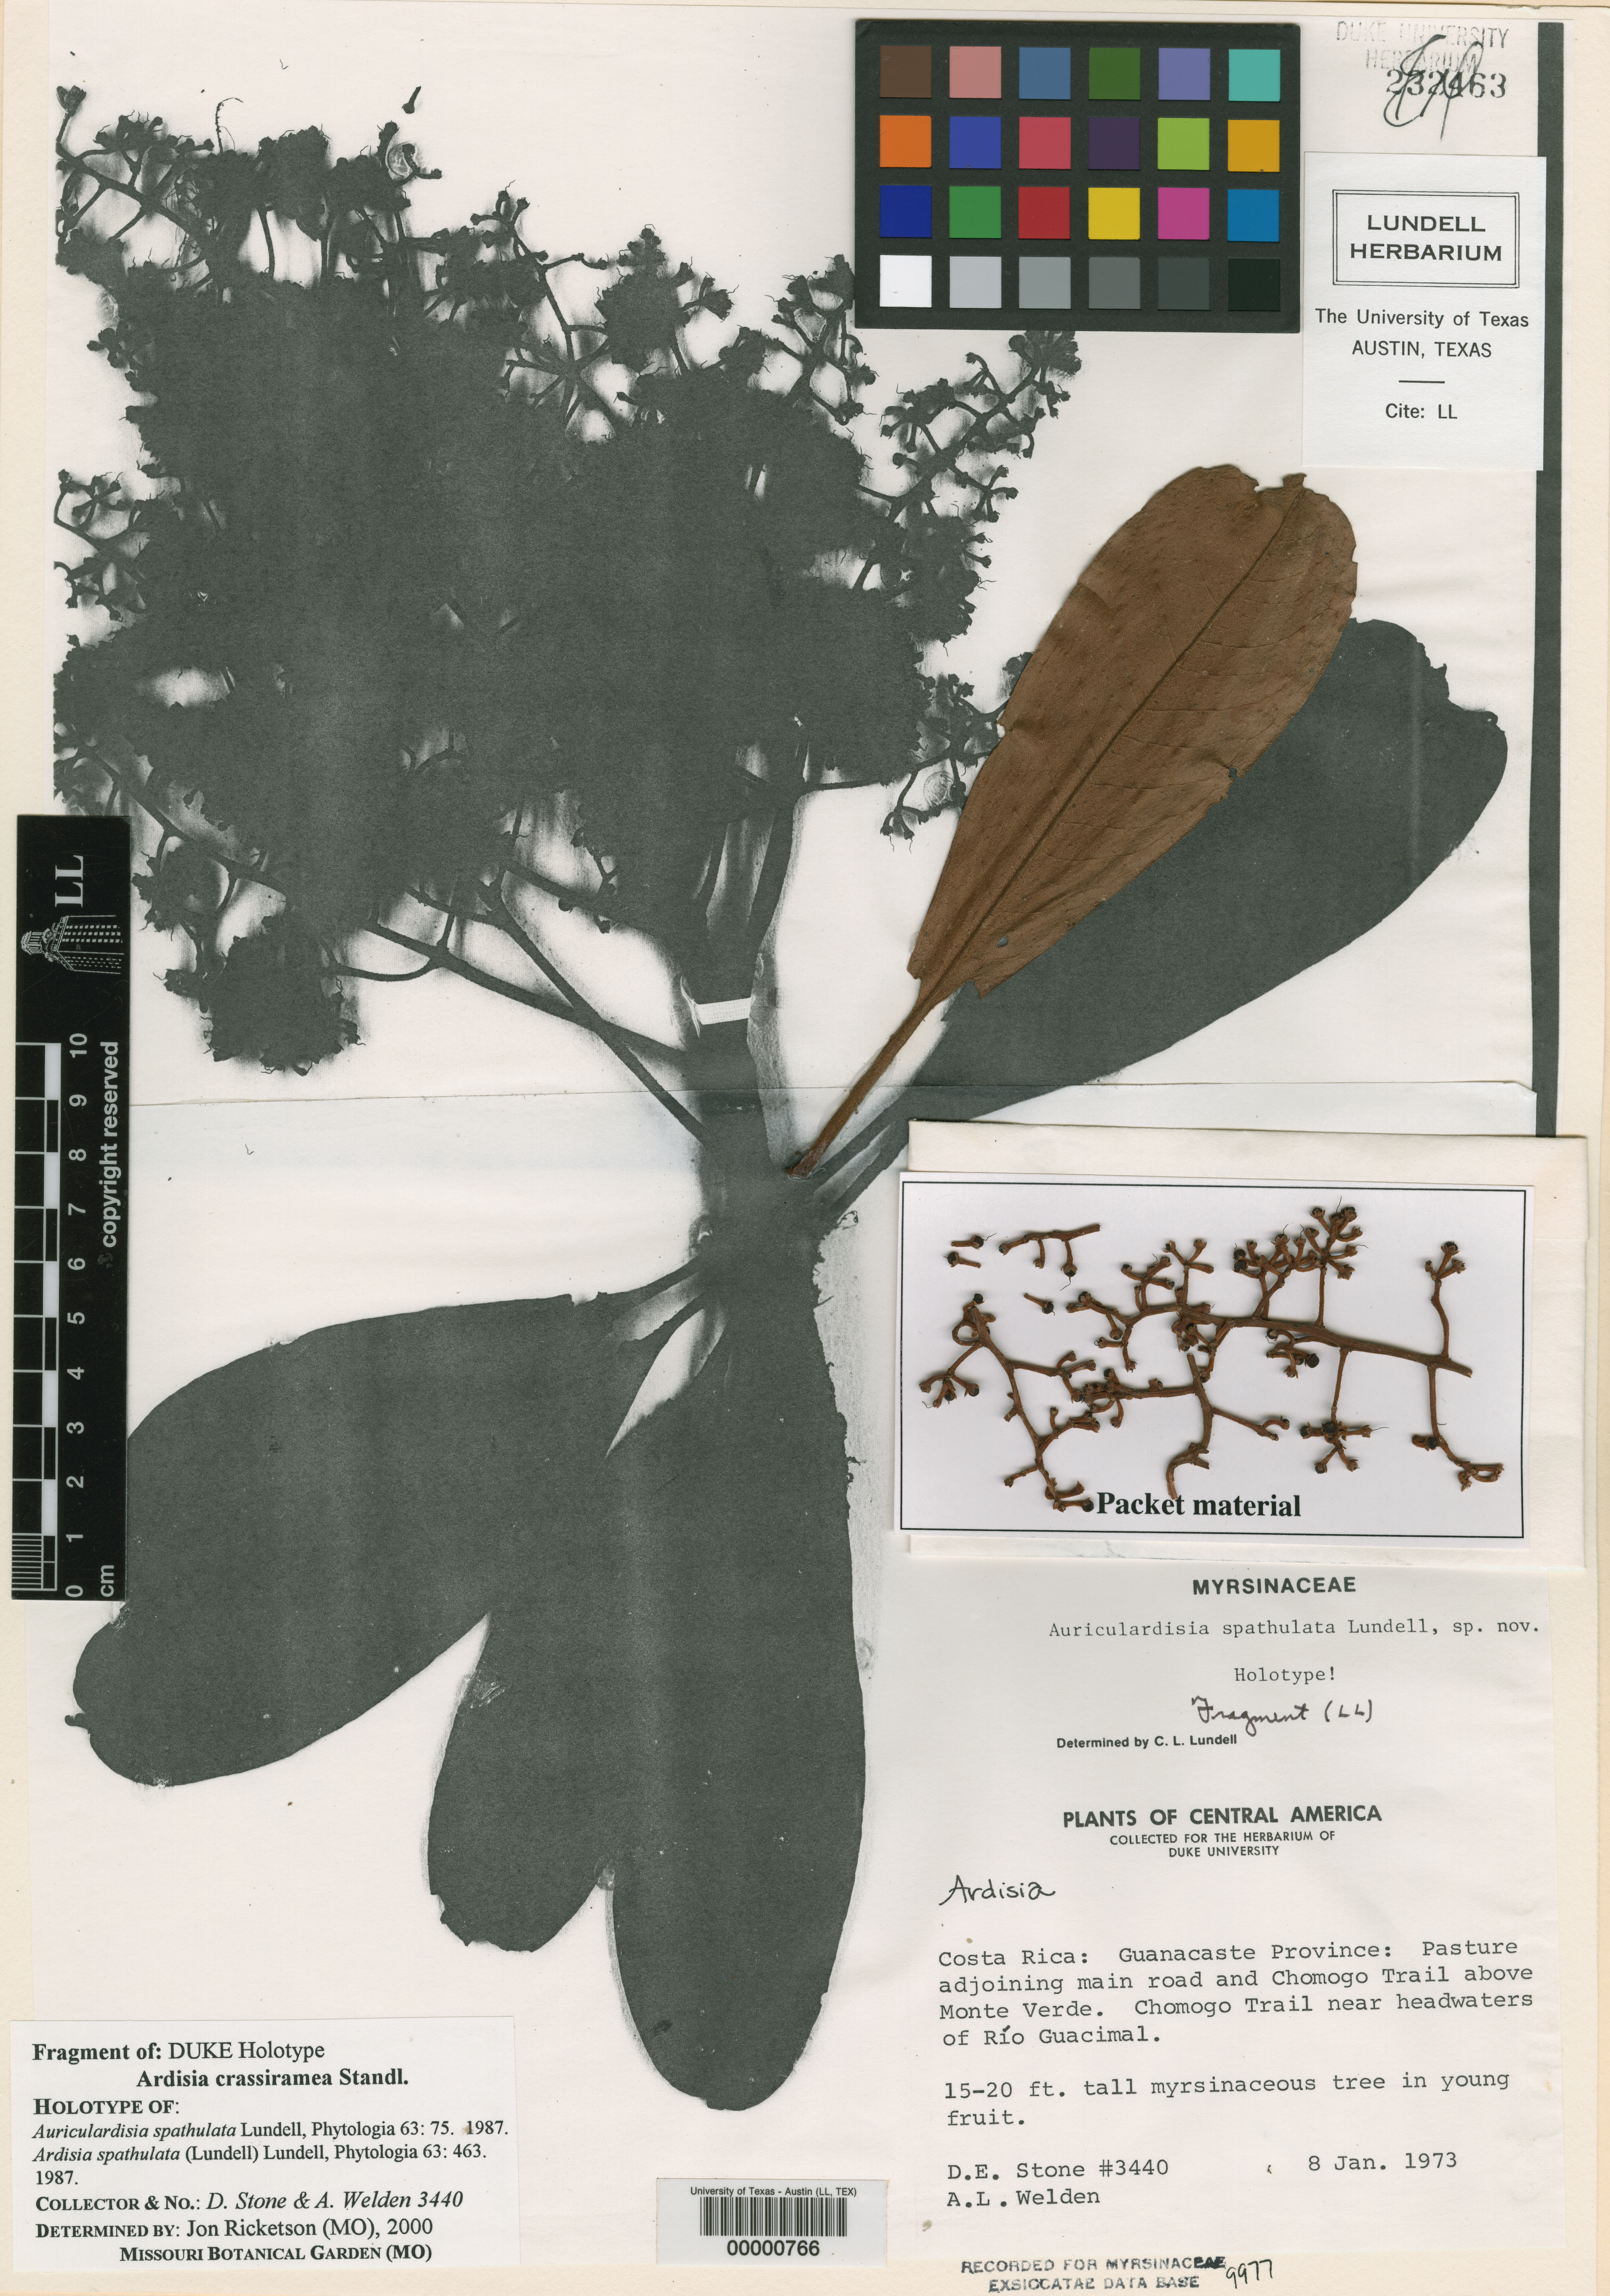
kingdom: Plantae
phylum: Tracheophyta
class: Magnoliopsida
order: Ericales
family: Primulaceae
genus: Ardisia
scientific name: Ardisia crassiramea
